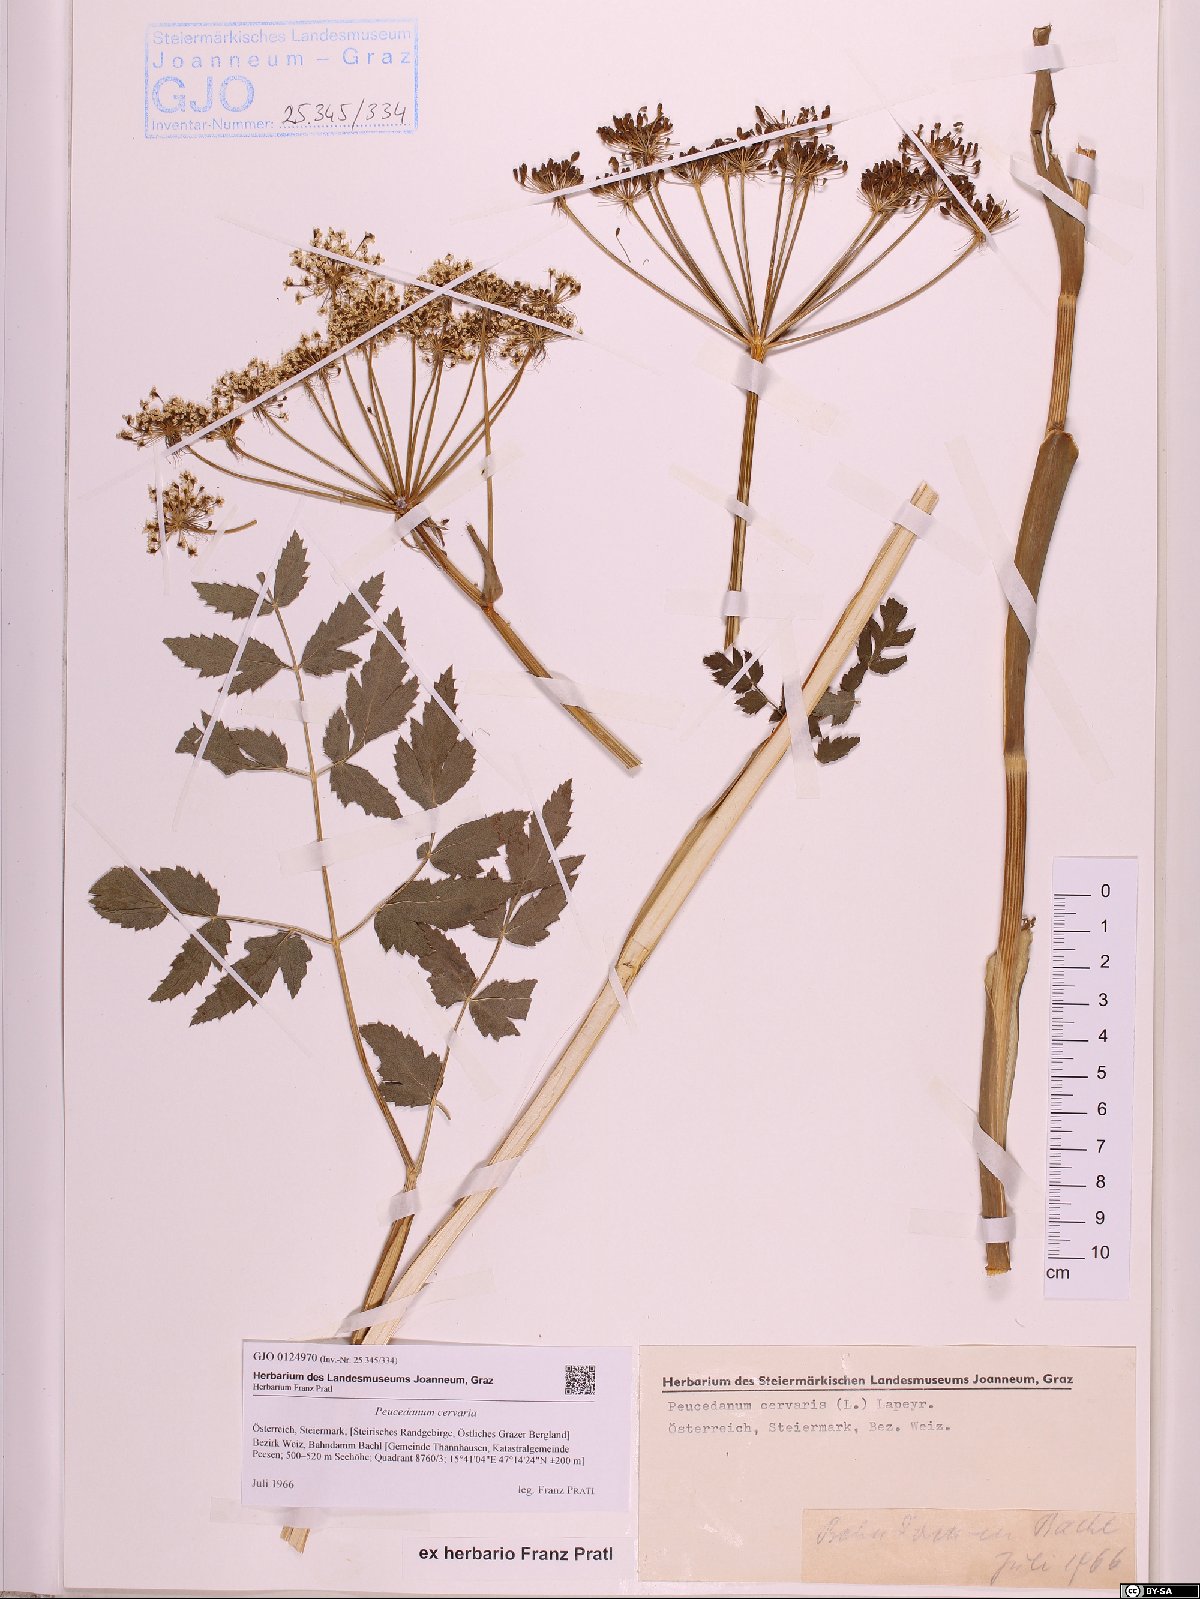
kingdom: Plantae
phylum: Tracheophyta
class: Magnoliopsida
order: Apiales
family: Apiaceae
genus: Cervaria
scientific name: Cervaria rivini
